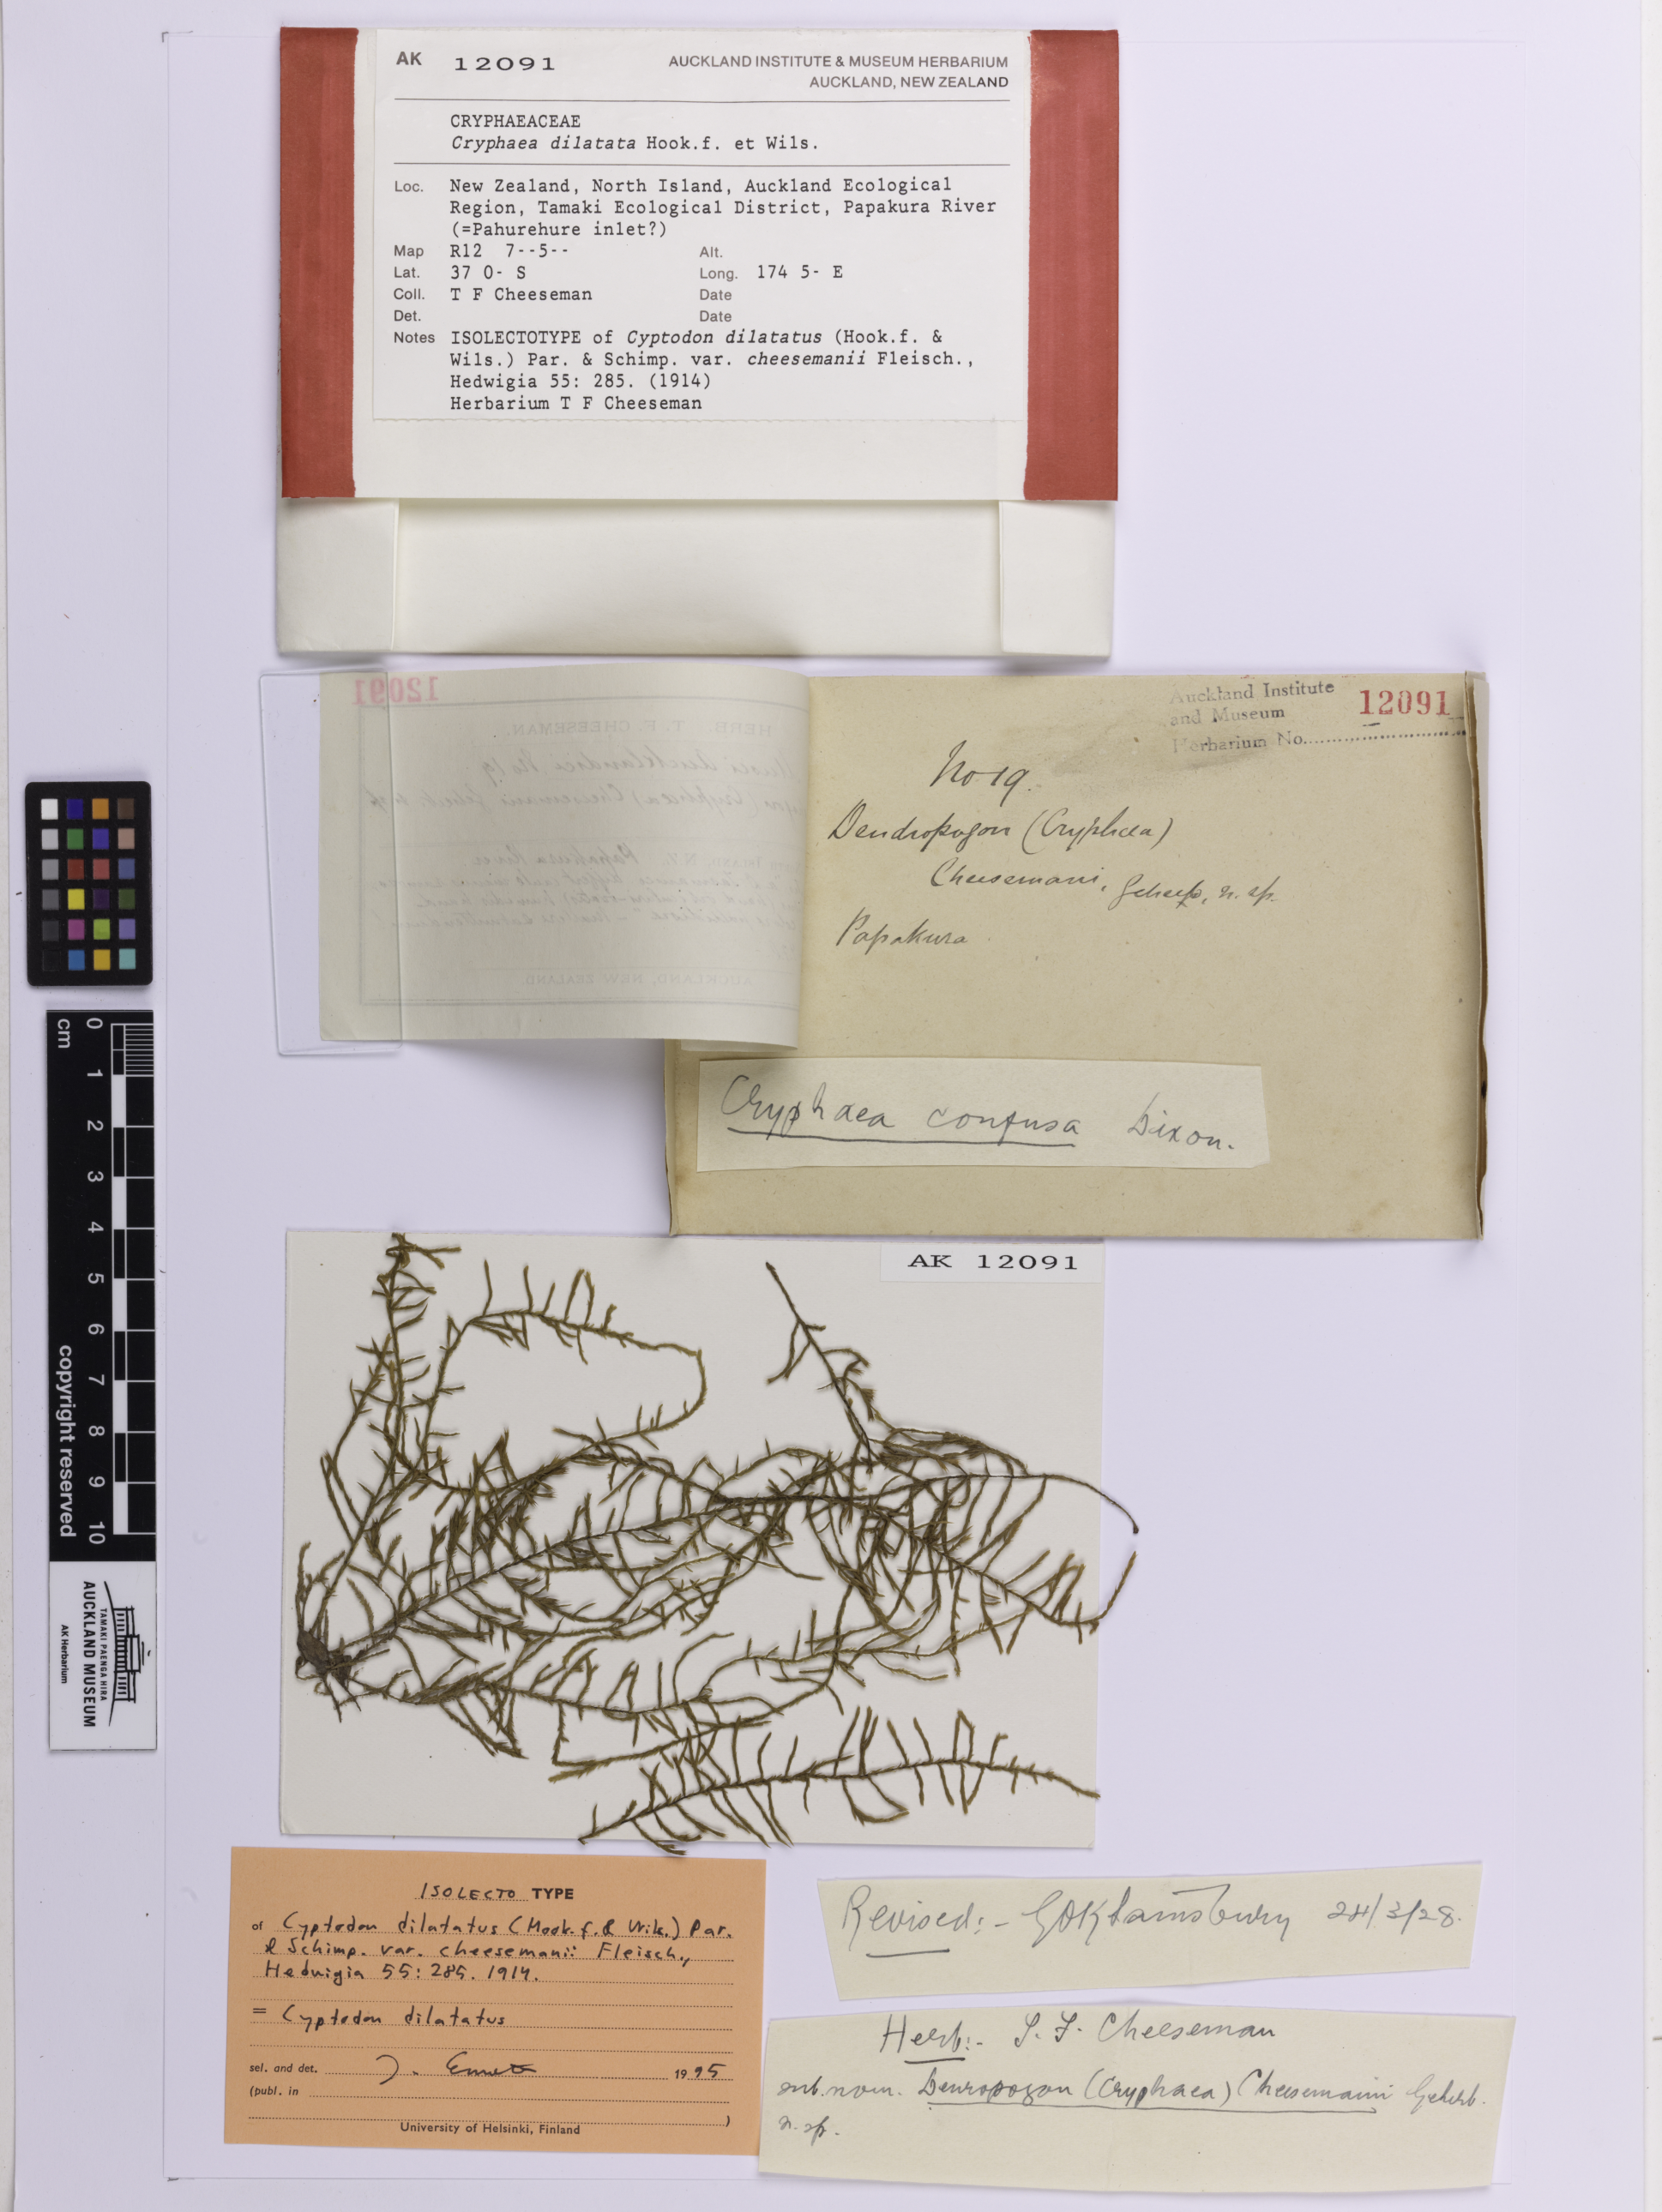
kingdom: Plantae
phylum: Bryophyta
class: Bryopsida
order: Hypnales
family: Cryphaeaceae
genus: Cyptodon
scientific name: Cyptodon dilatatus
